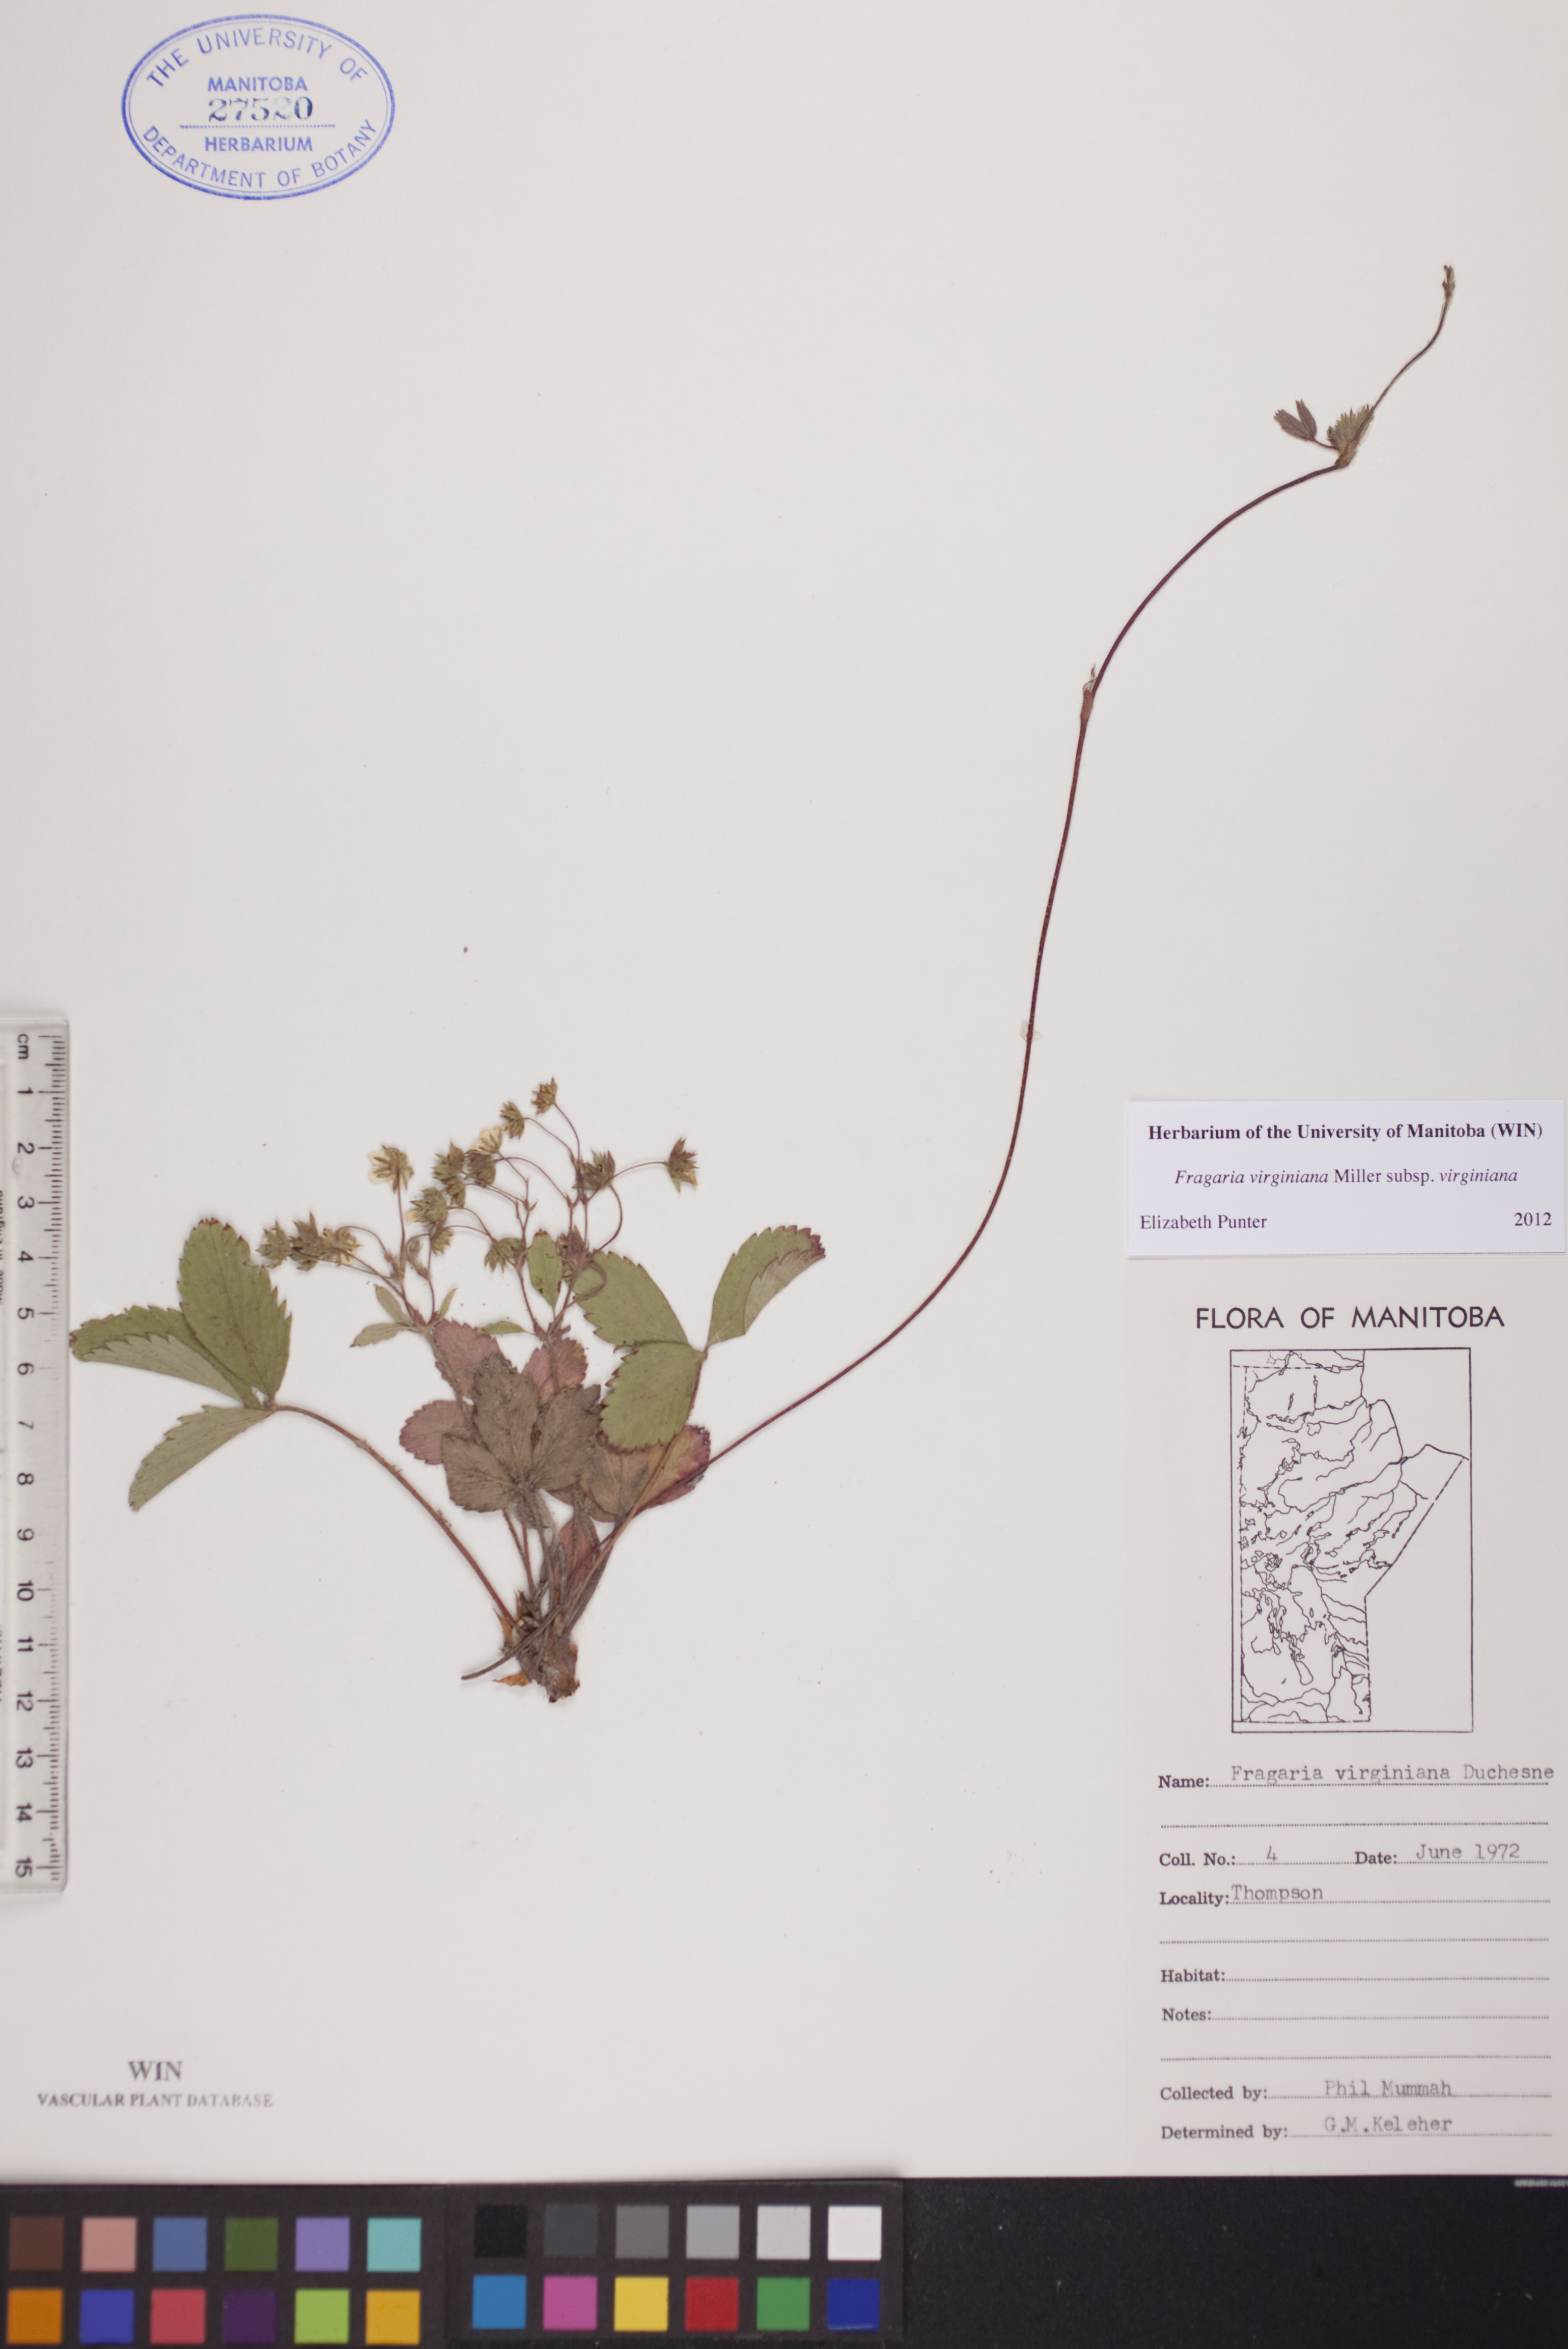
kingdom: Plantae
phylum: Tracheophyta
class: Magnoliopsida
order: Rosales
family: Rosaceae
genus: Fragaria
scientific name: Fragaria virginiana
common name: Thickleaved wild strawberry
